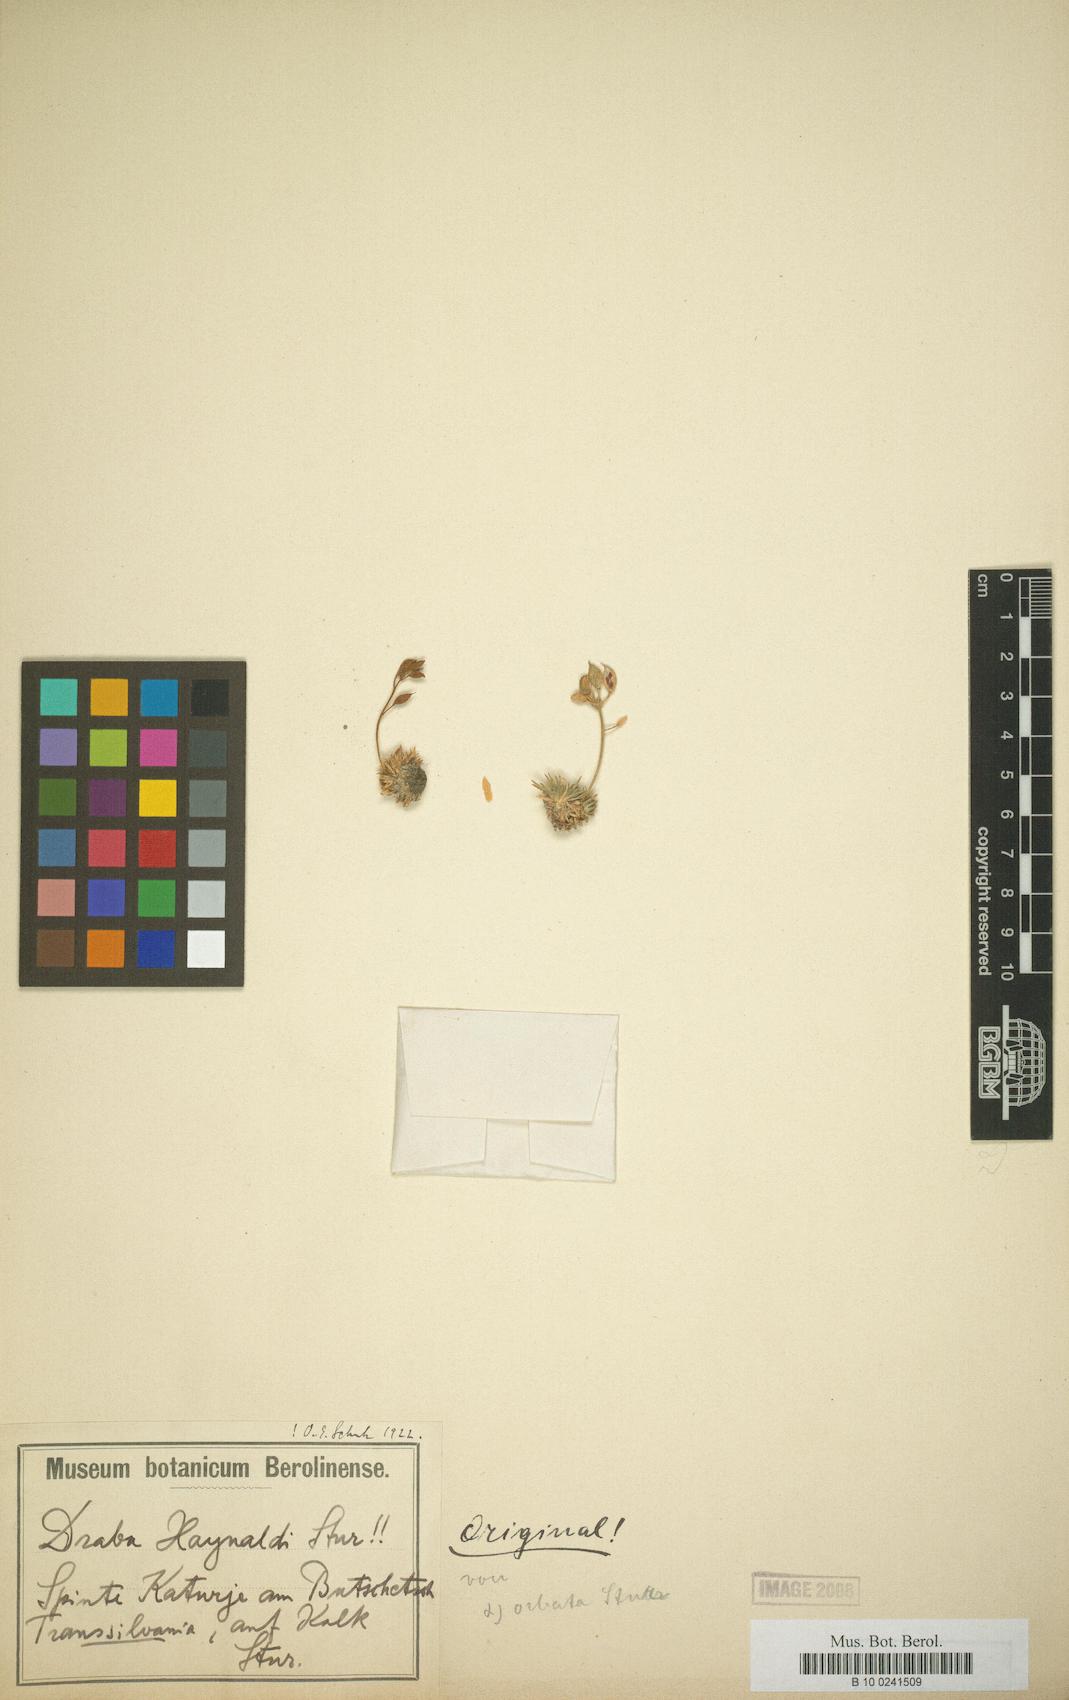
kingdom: Plantae
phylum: Tracheophyta
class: Magnoliopsida
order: Brassicales
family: Brassicaceae
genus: Draba
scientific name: Draba haynaldii
